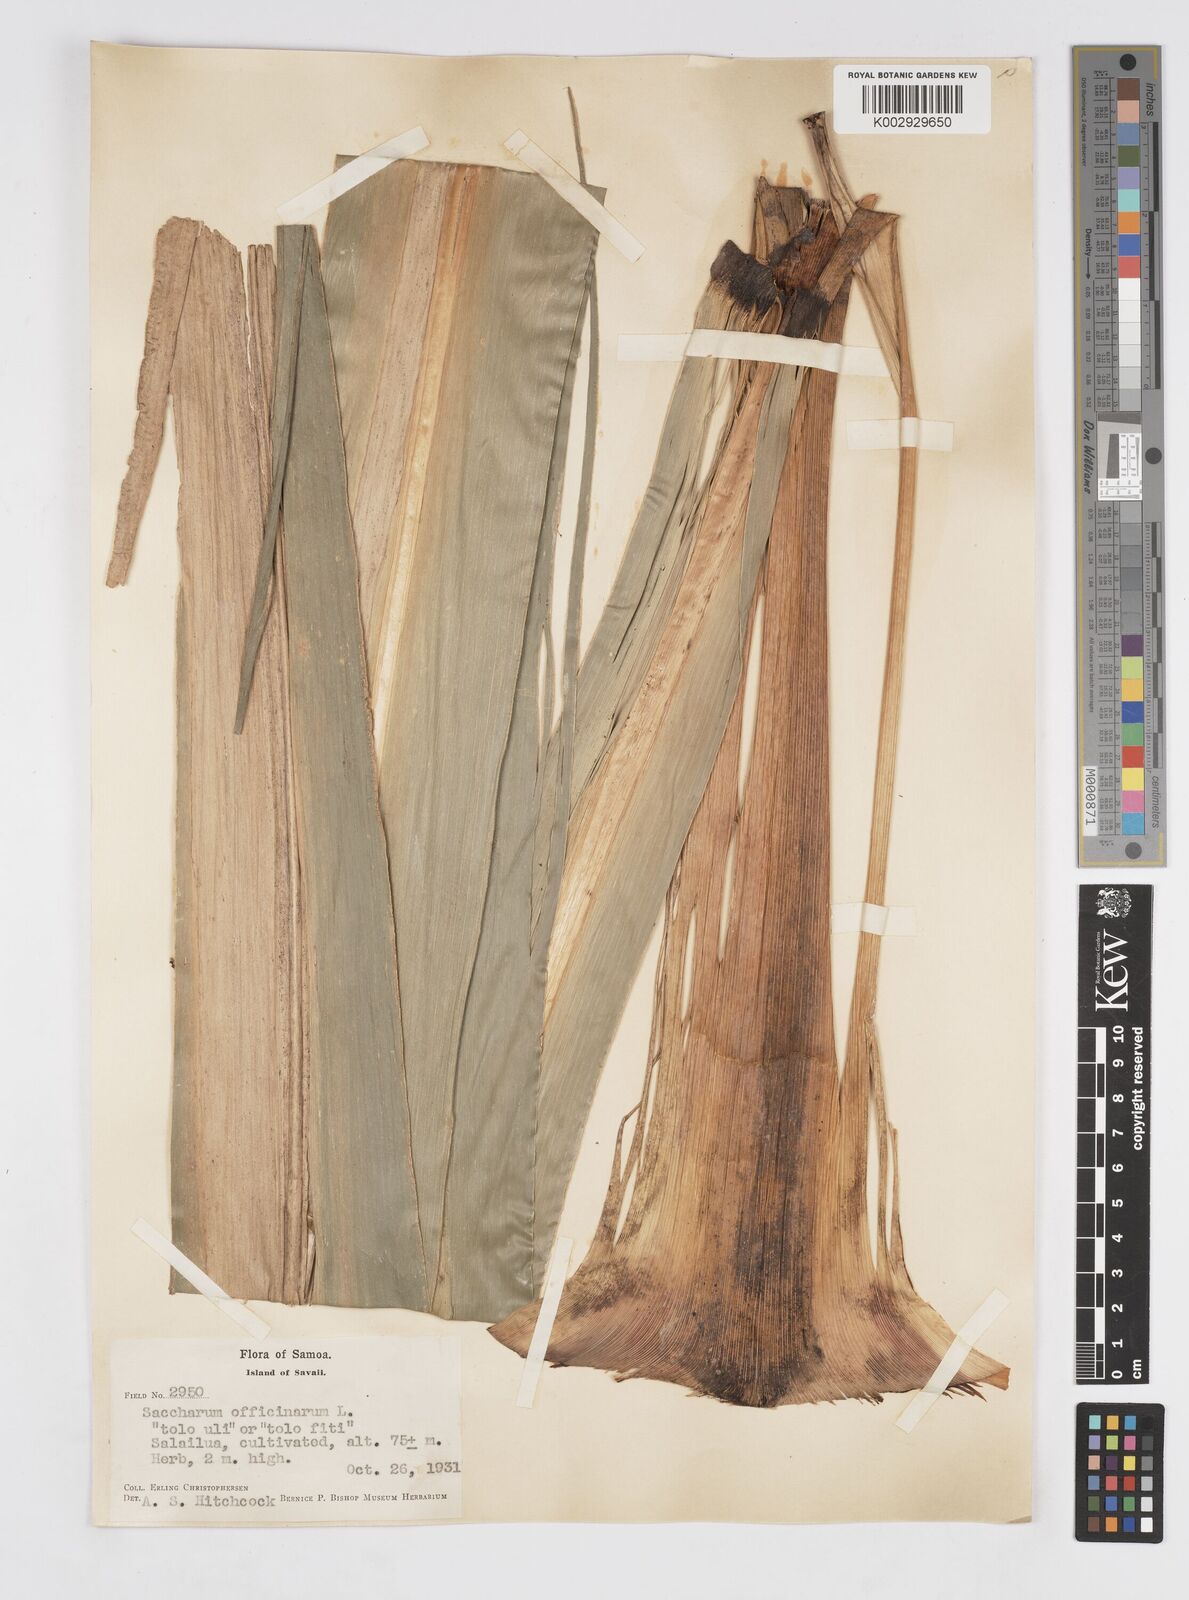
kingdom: Plantae
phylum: Tracheophyta
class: Liliopsida
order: Poales
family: Poaceae
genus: Saccharum
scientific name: Saccharum officinarum
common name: Sugarcane
